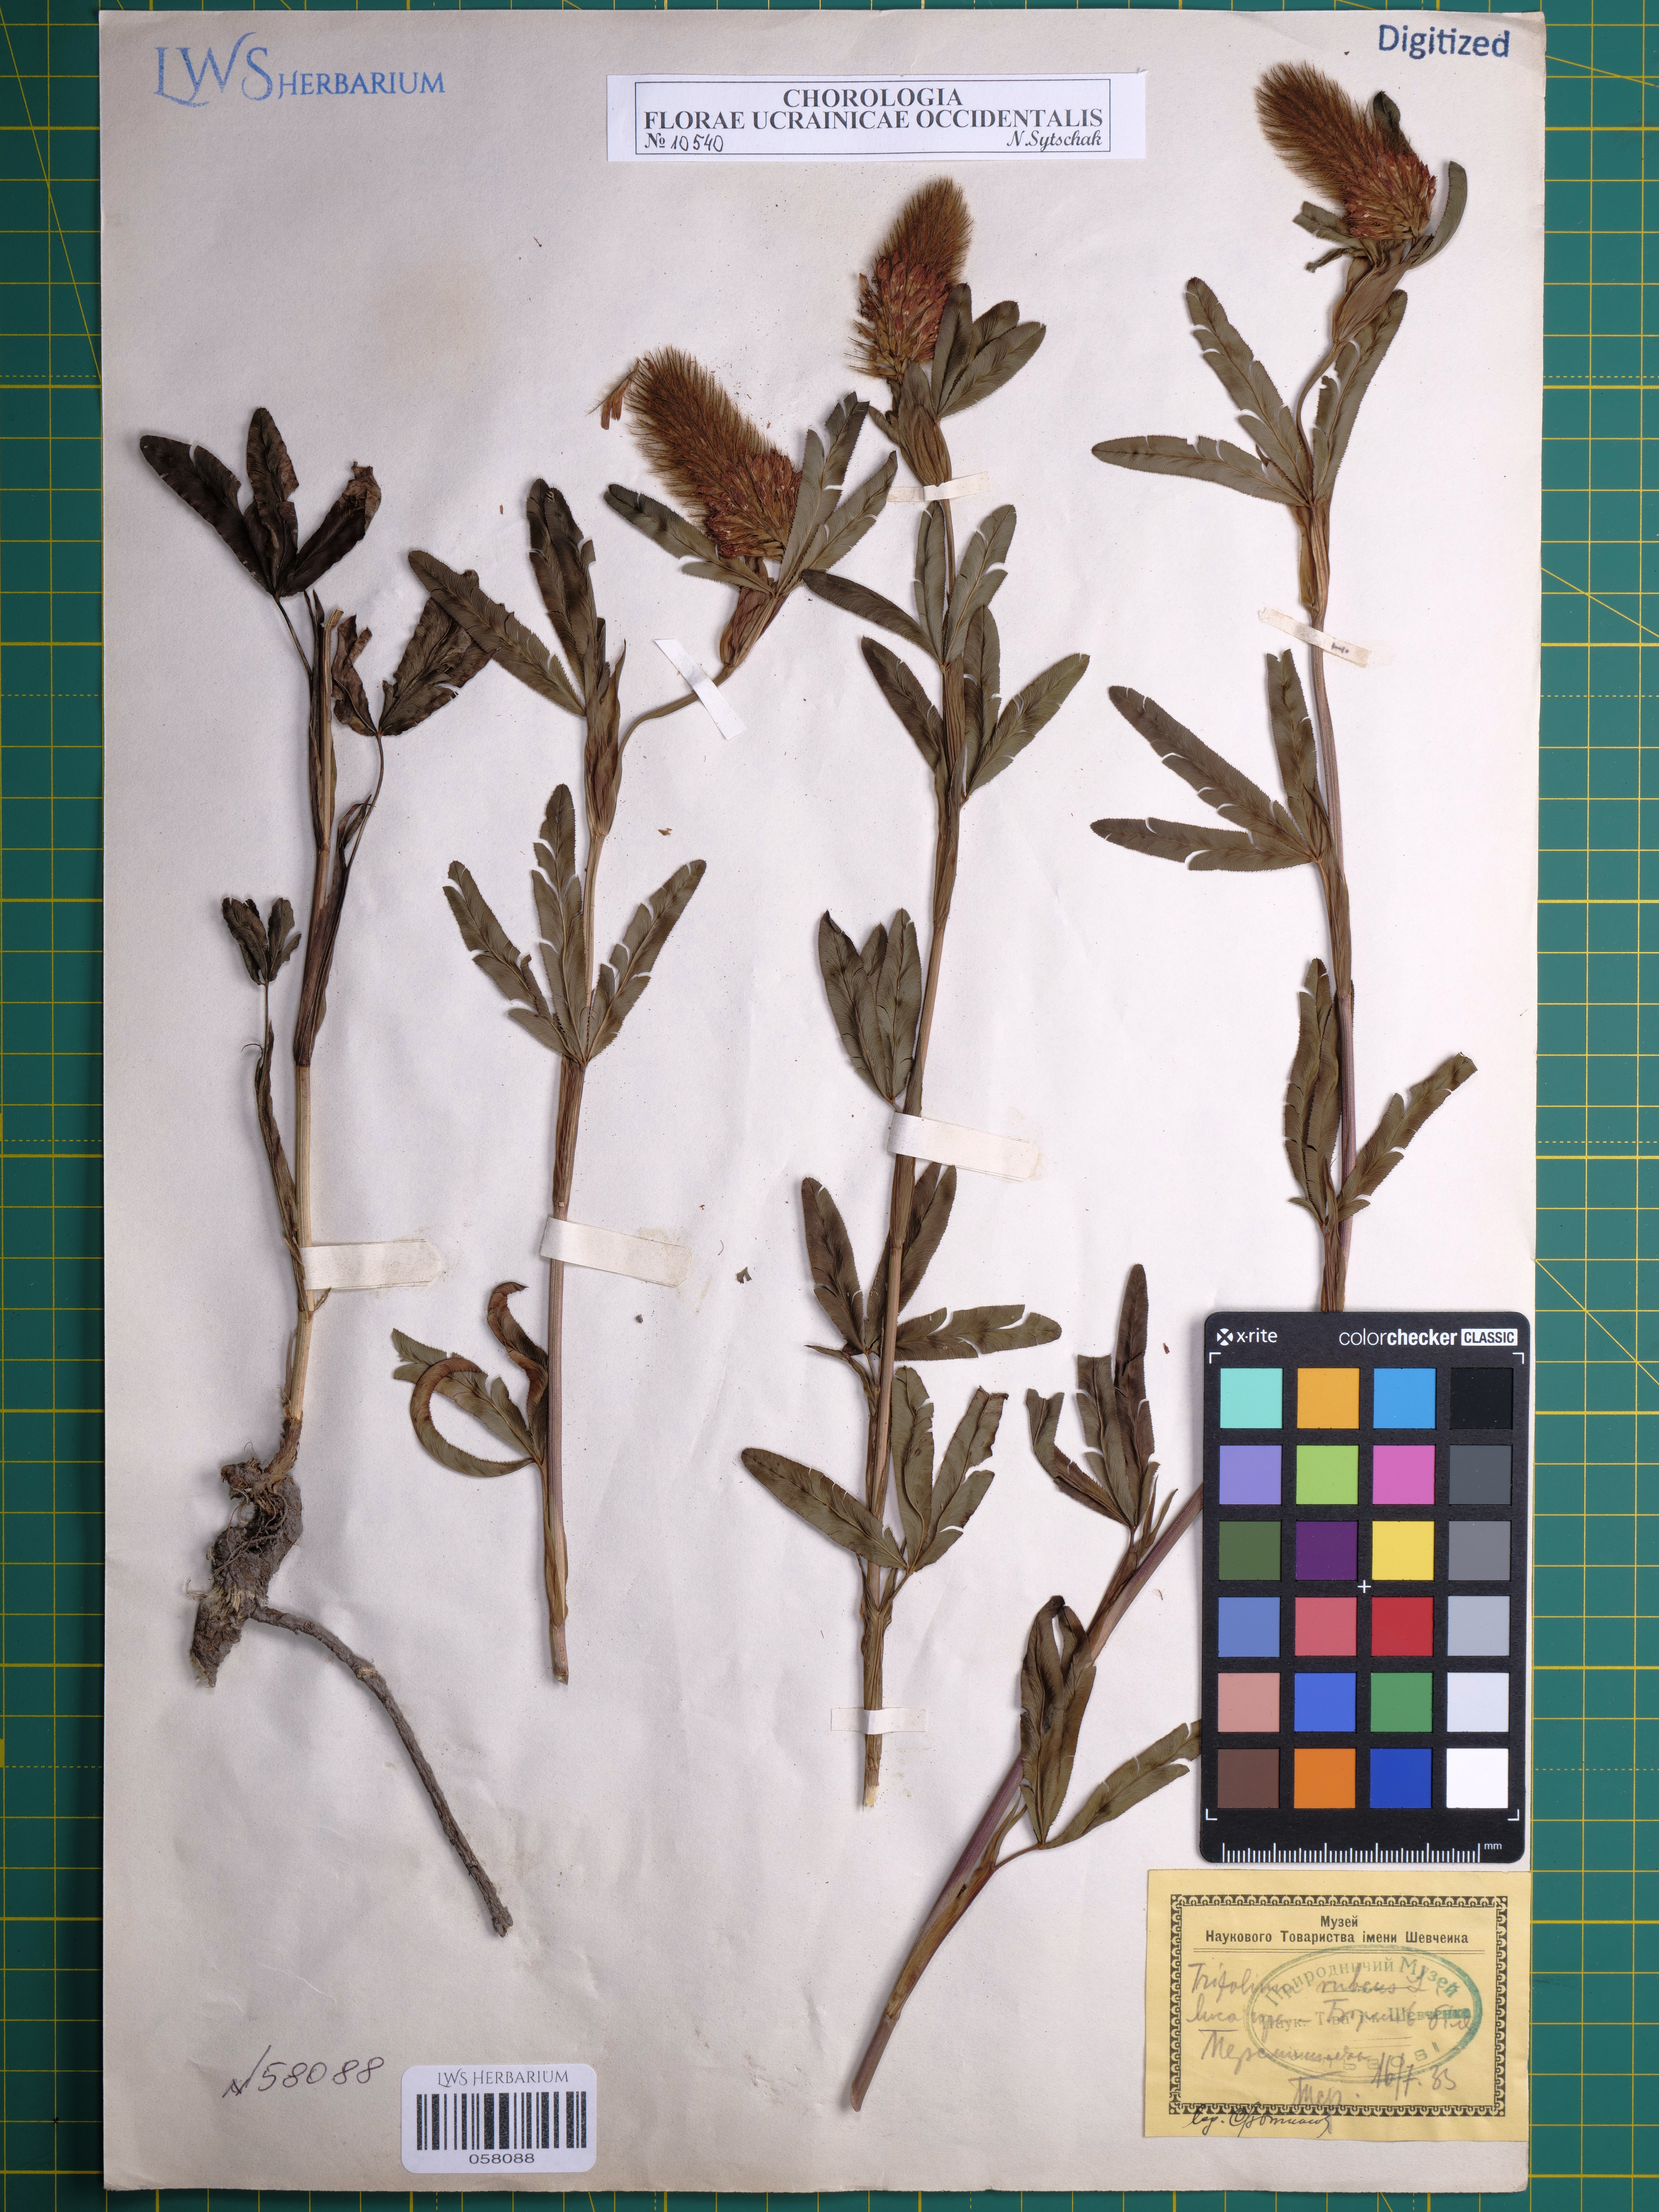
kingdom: Plantae
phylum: Tracheophyta
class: Magnoliopsida
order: Fabales
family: Fabaceae
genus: Trifolium
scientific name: Trifolium rubens
